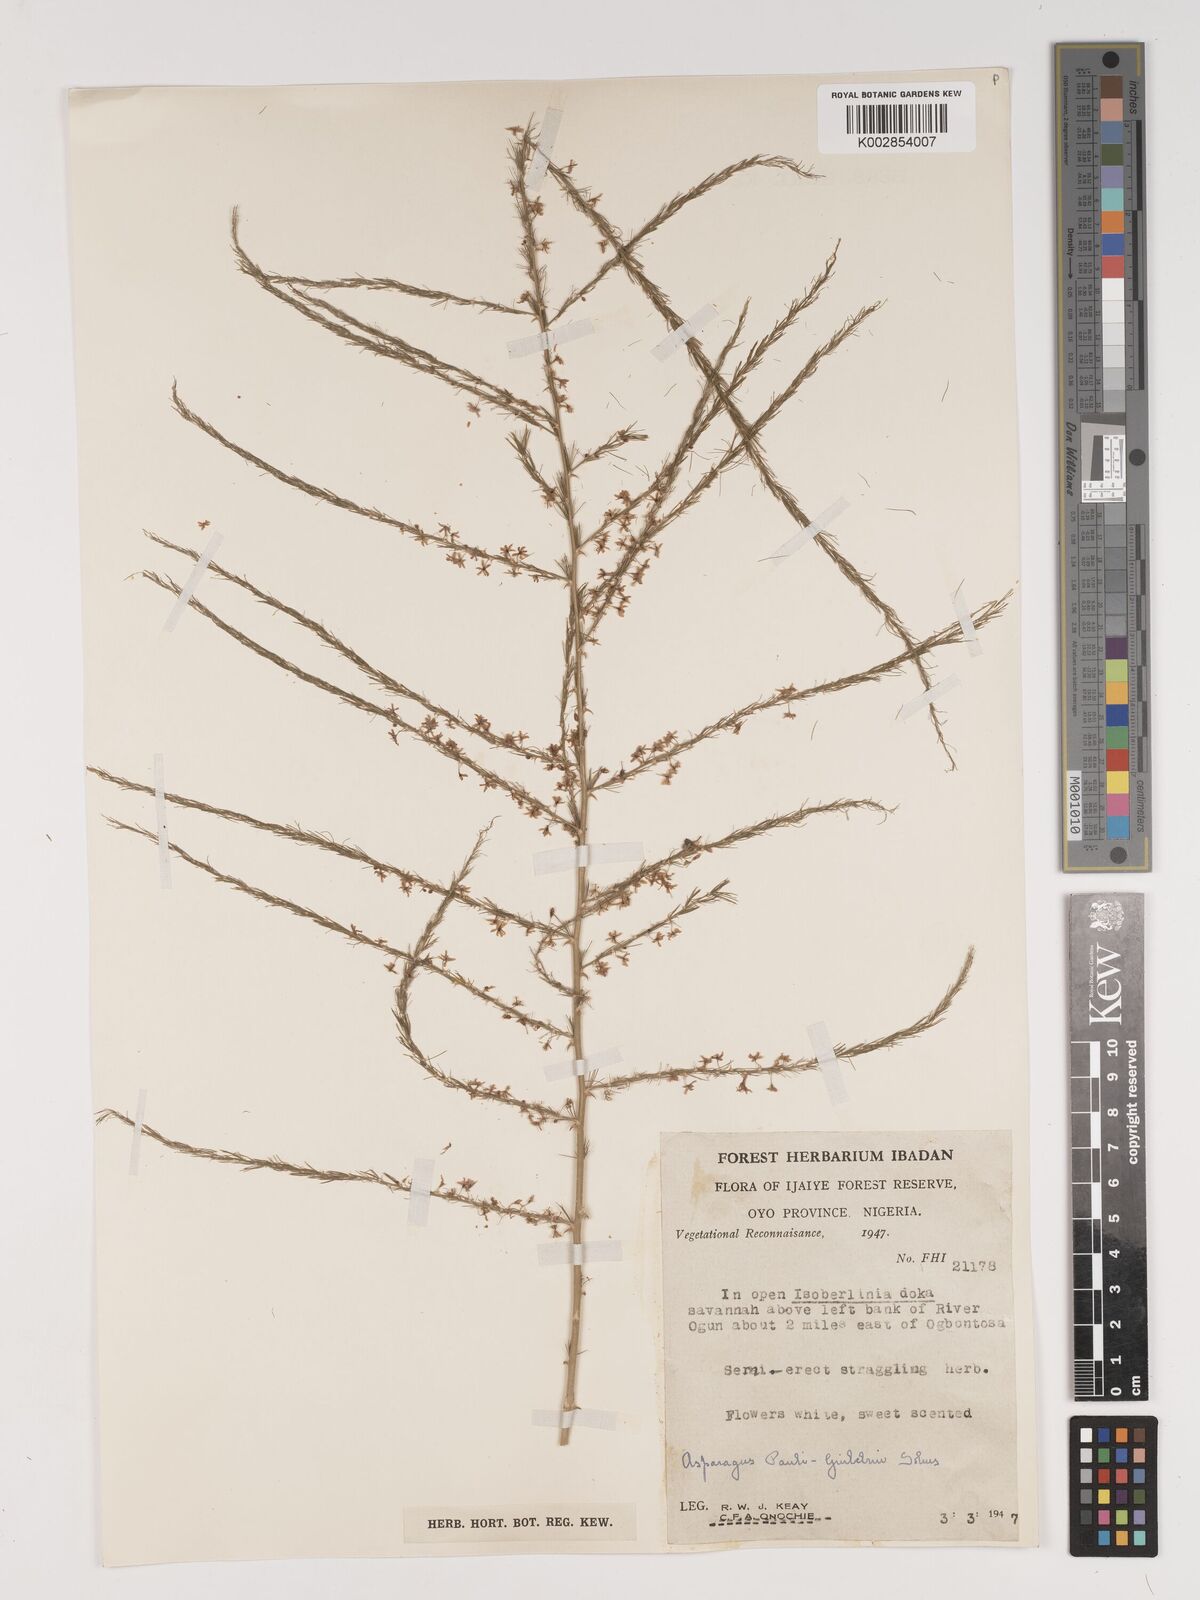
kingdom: Plantae
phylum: Tracheophyta
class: Liliopsida
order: Asparagales
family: Asparagaceae
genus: Asparagus
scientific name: Asparagus flagellaris
